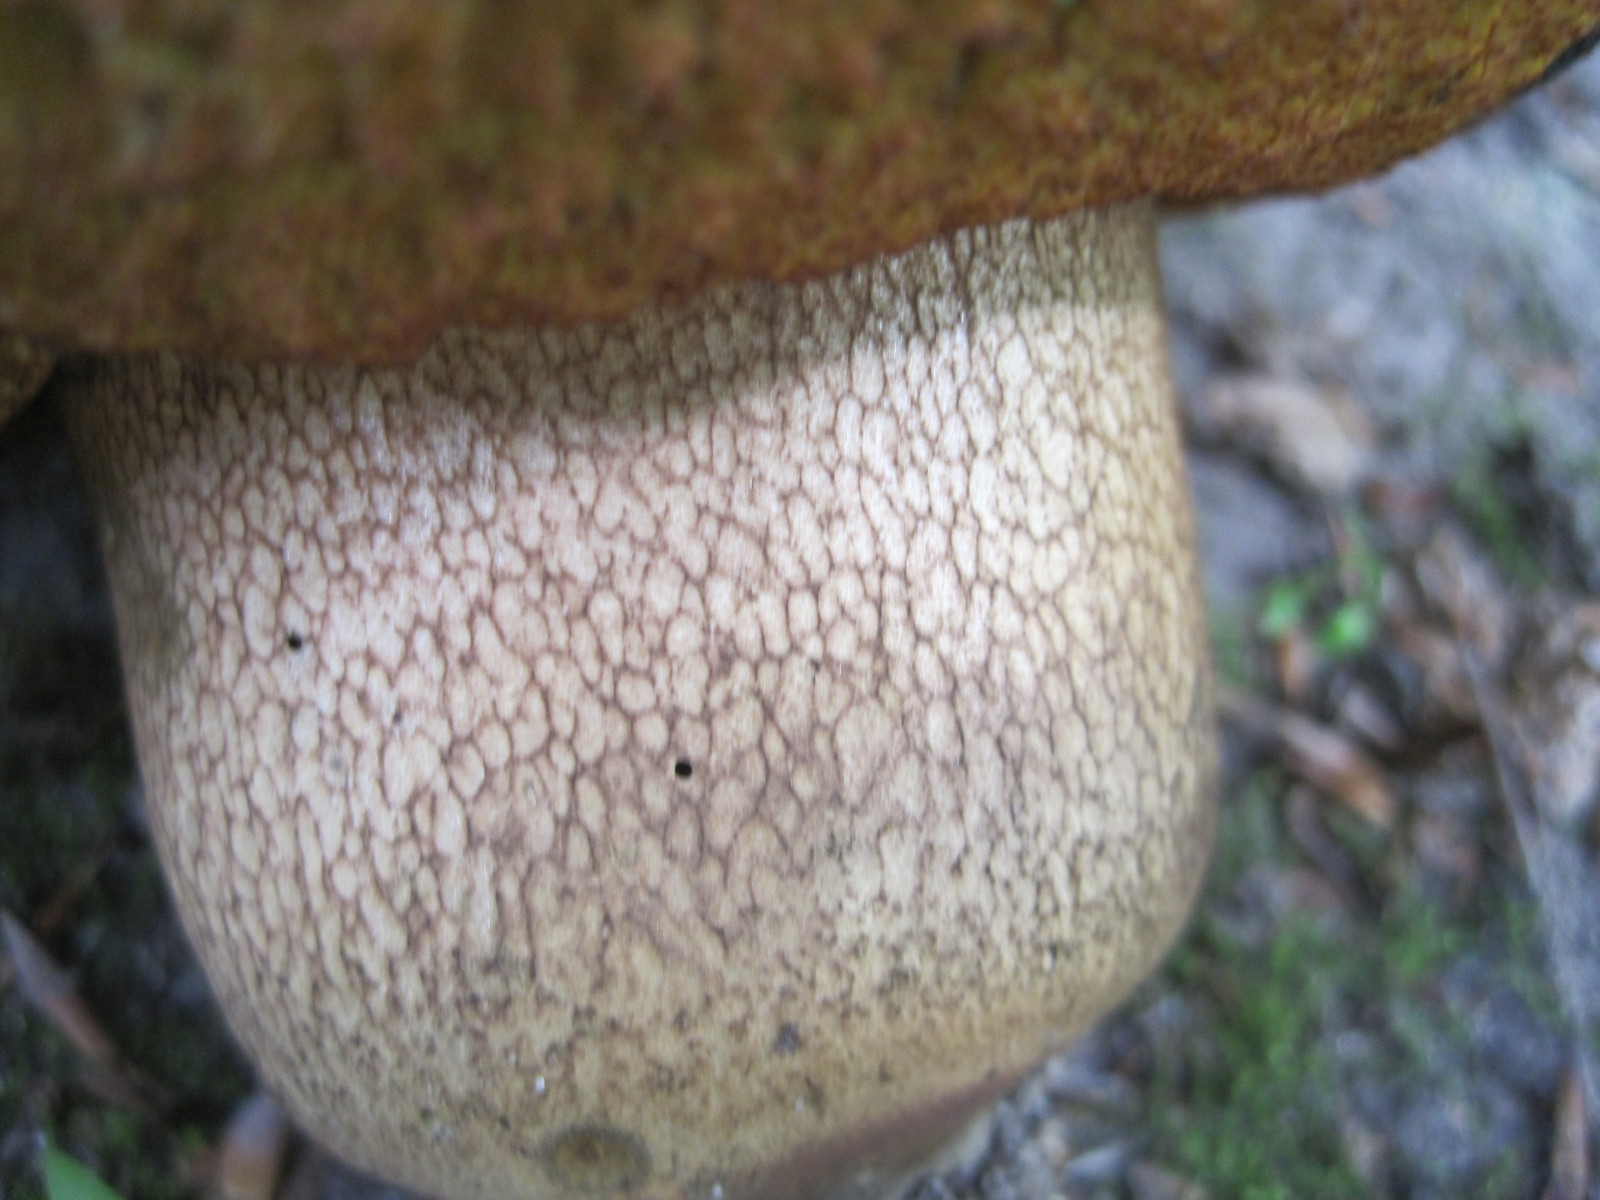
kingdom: Fungi
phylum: Basidiomycota
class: Agaricomycetes
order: Boletales
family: Boletaceae
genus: Suillellus
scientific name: Suillellus luridus
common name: netstokket indigorørhat
